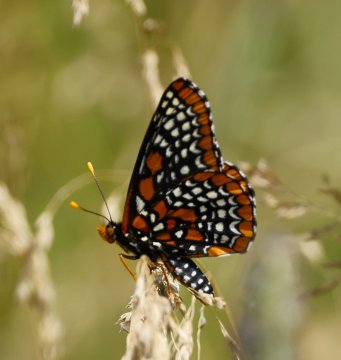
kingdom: Animalia
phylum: Arthropoda
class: Insecta
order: Lepidoptera
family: Nymphalidae
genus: Euphydryas
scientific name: Euphydryas phaeton
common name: Baltimore Checkerspot
